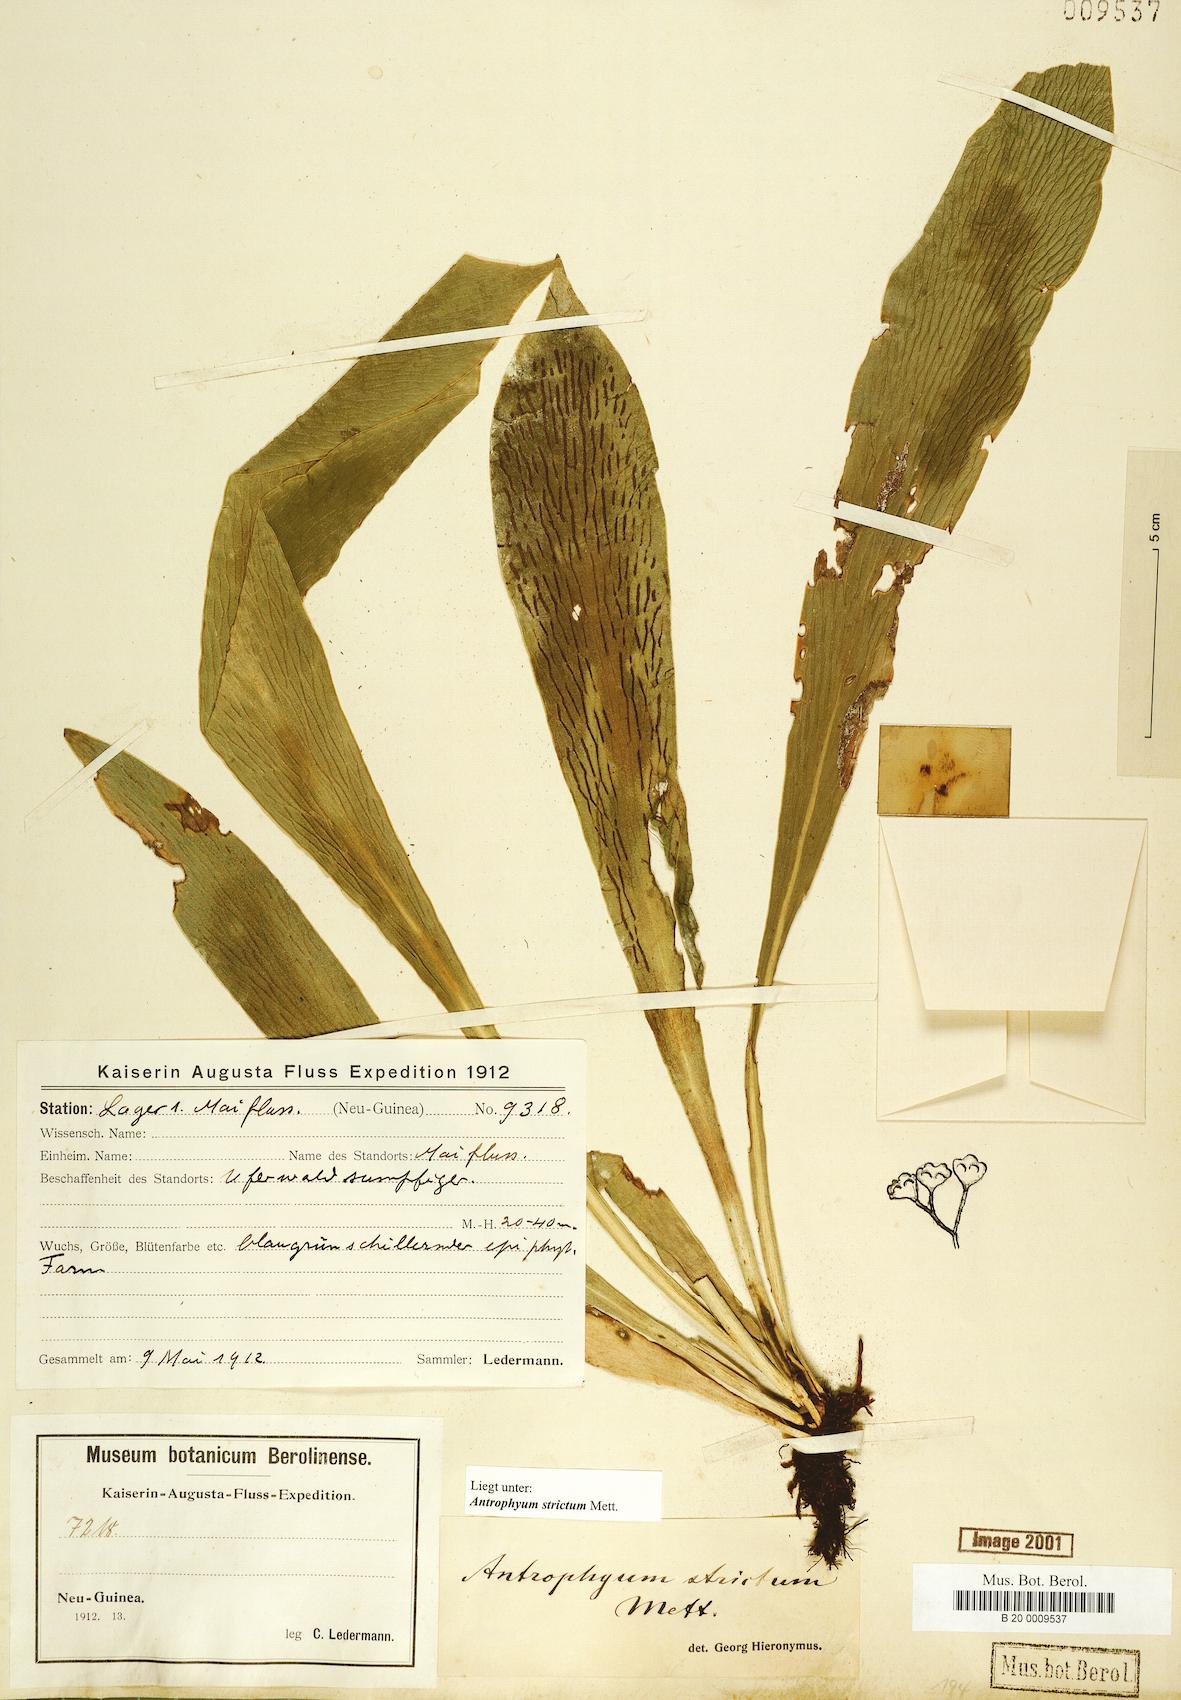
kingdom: Plantae
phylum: Tracheophyta
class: Polypodiopsida
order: Polypodiales
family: Pteridaceae
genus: Antrophyum
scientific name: Antrophyum strictum
